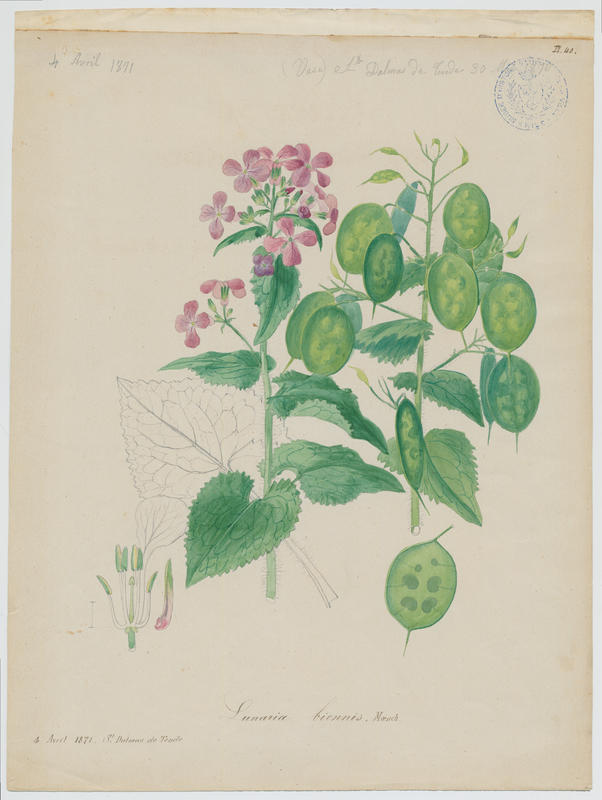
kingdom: Plantae
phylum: Tracheophyta
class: Magnoliopsida
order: Brassicales
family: Brassicaceae
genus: Lunaria
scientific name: Lunaria annua
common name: Honesty
